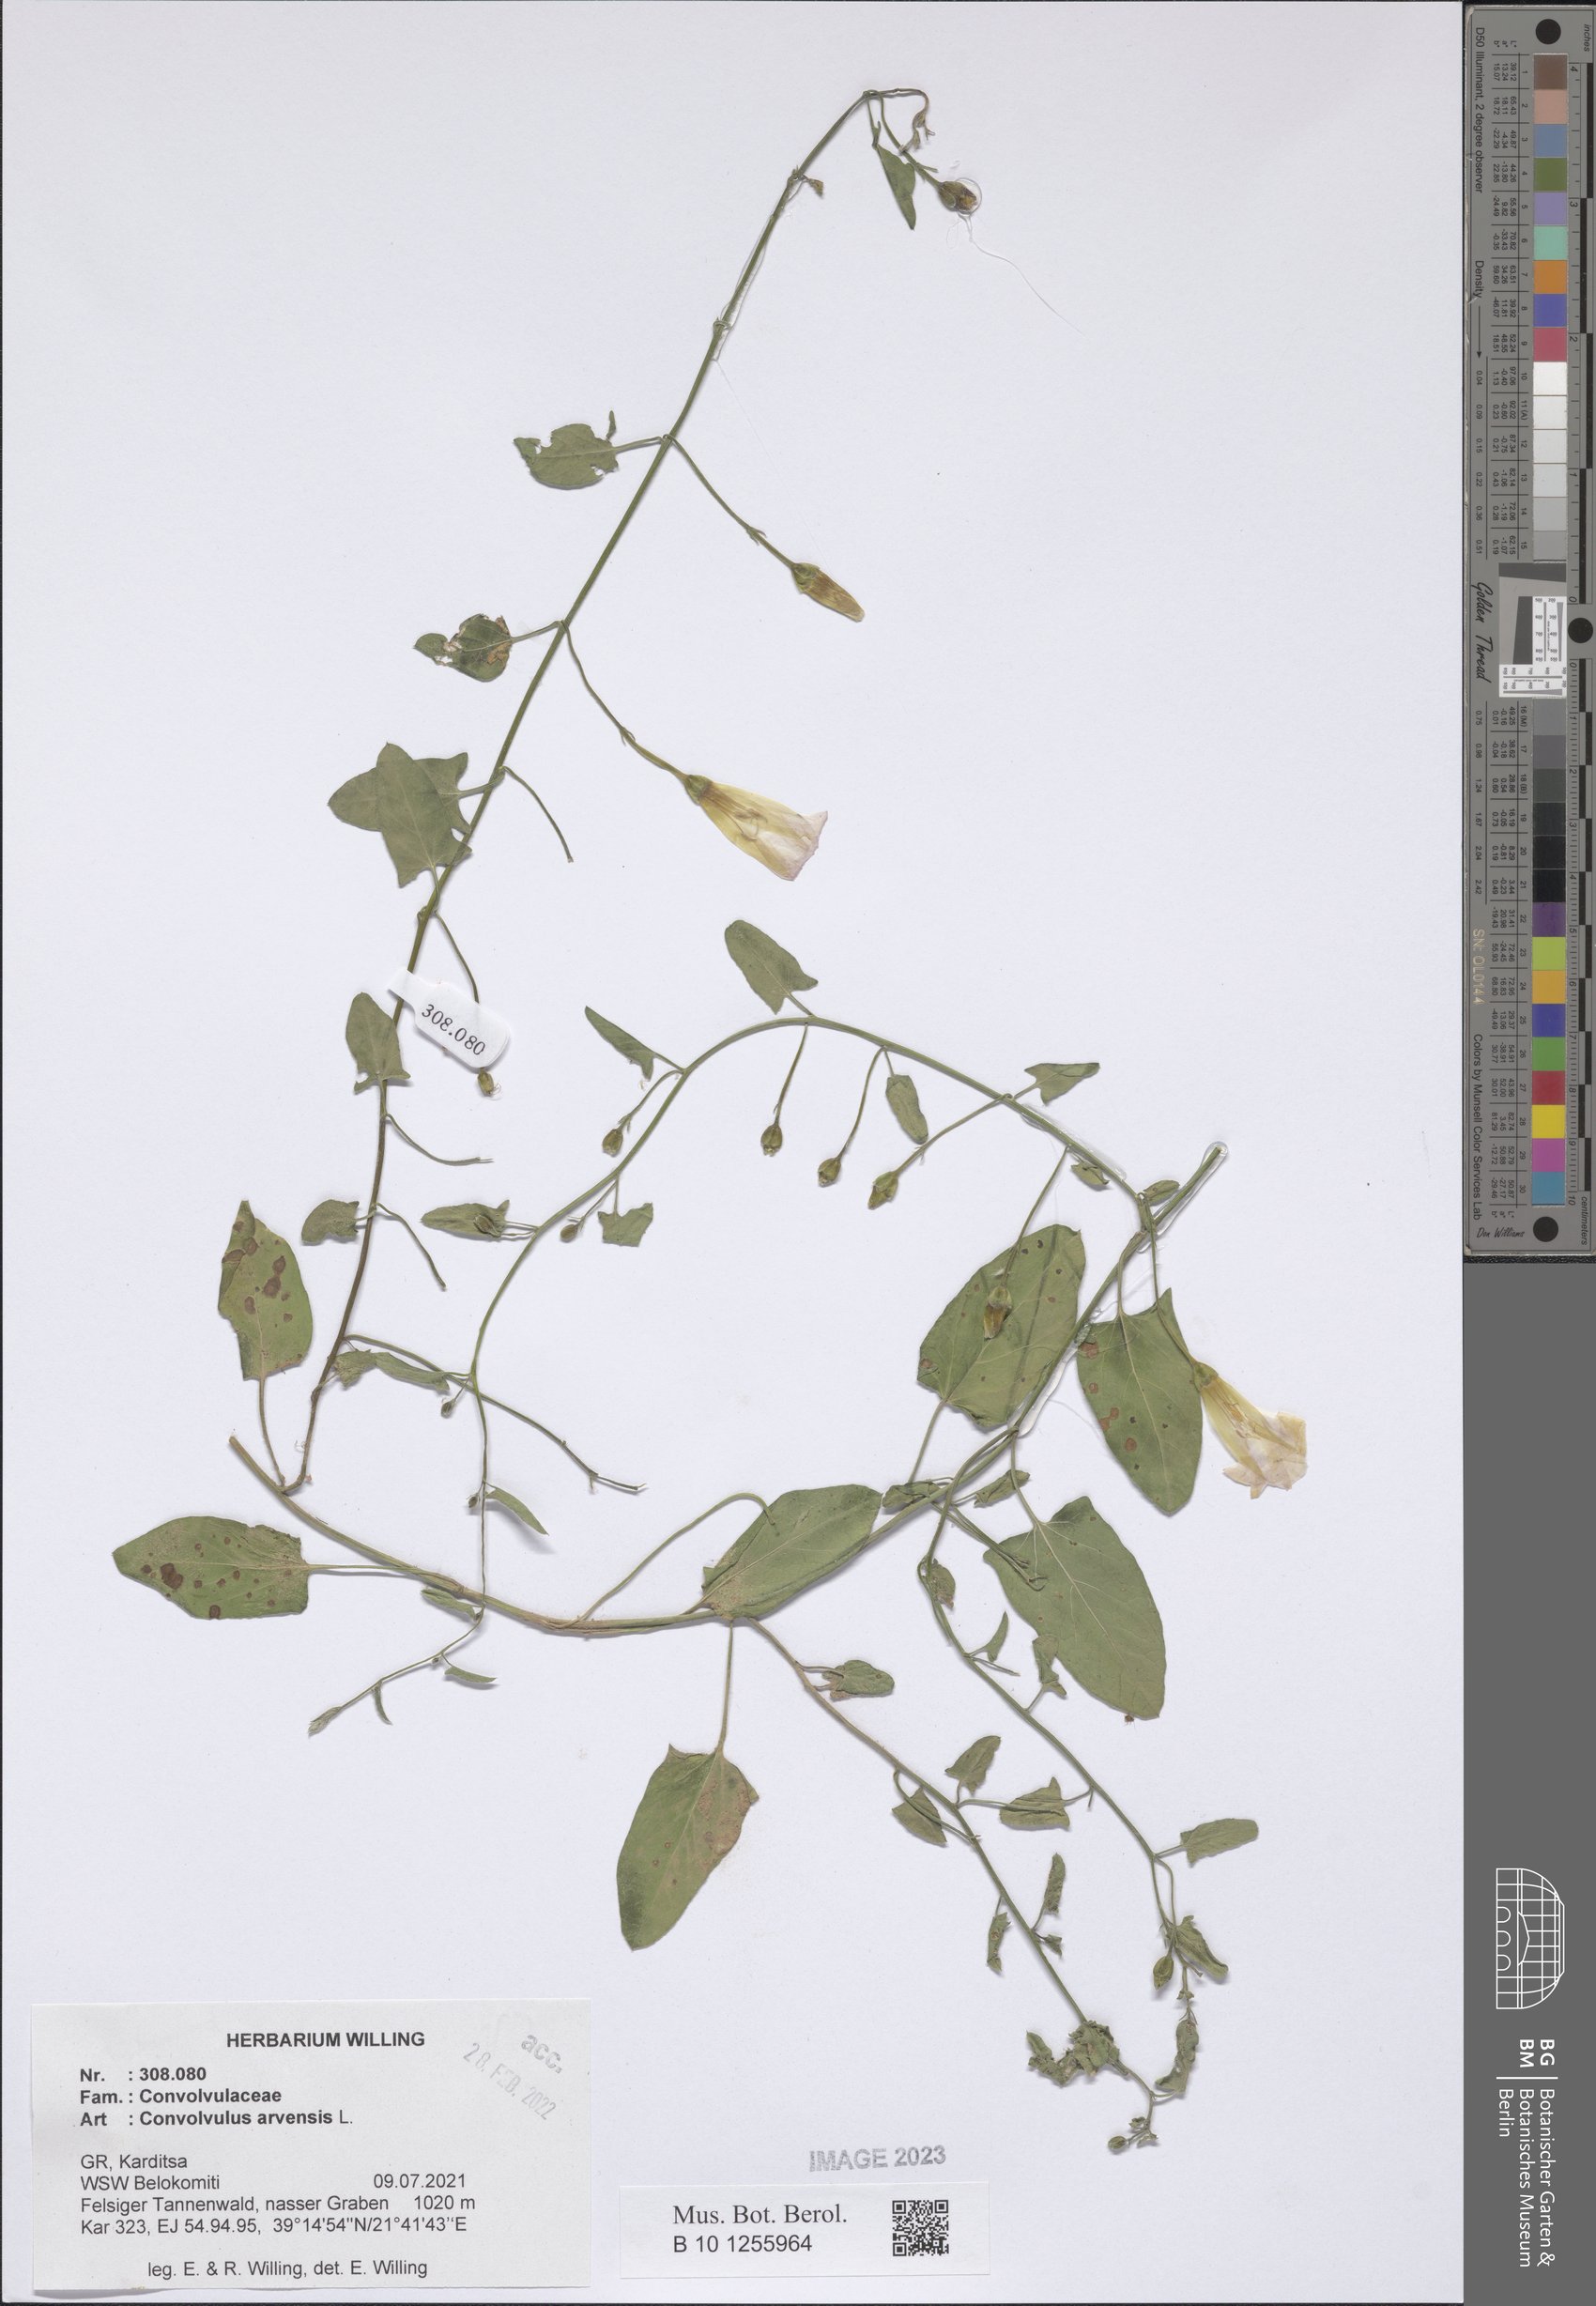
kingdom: Plantae
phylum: Tracheophyta
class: Magnoliopsida
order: Solanales
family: Convolvulaceae
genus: Convolvulus
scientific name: Convolvulus arvensis
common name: Field bindweed
